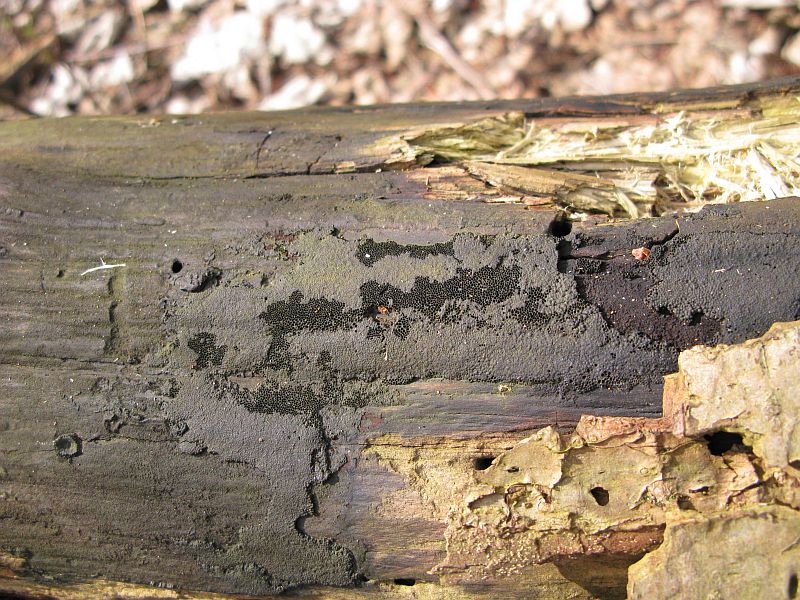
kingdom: Fungi
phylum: Ascomycota
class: Sordariomycetes
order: Xylariales
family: Hypoxylaceae
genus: Hypoxylon
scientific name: Hypoxylon macrocarpum
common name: skorpe-kulbær
